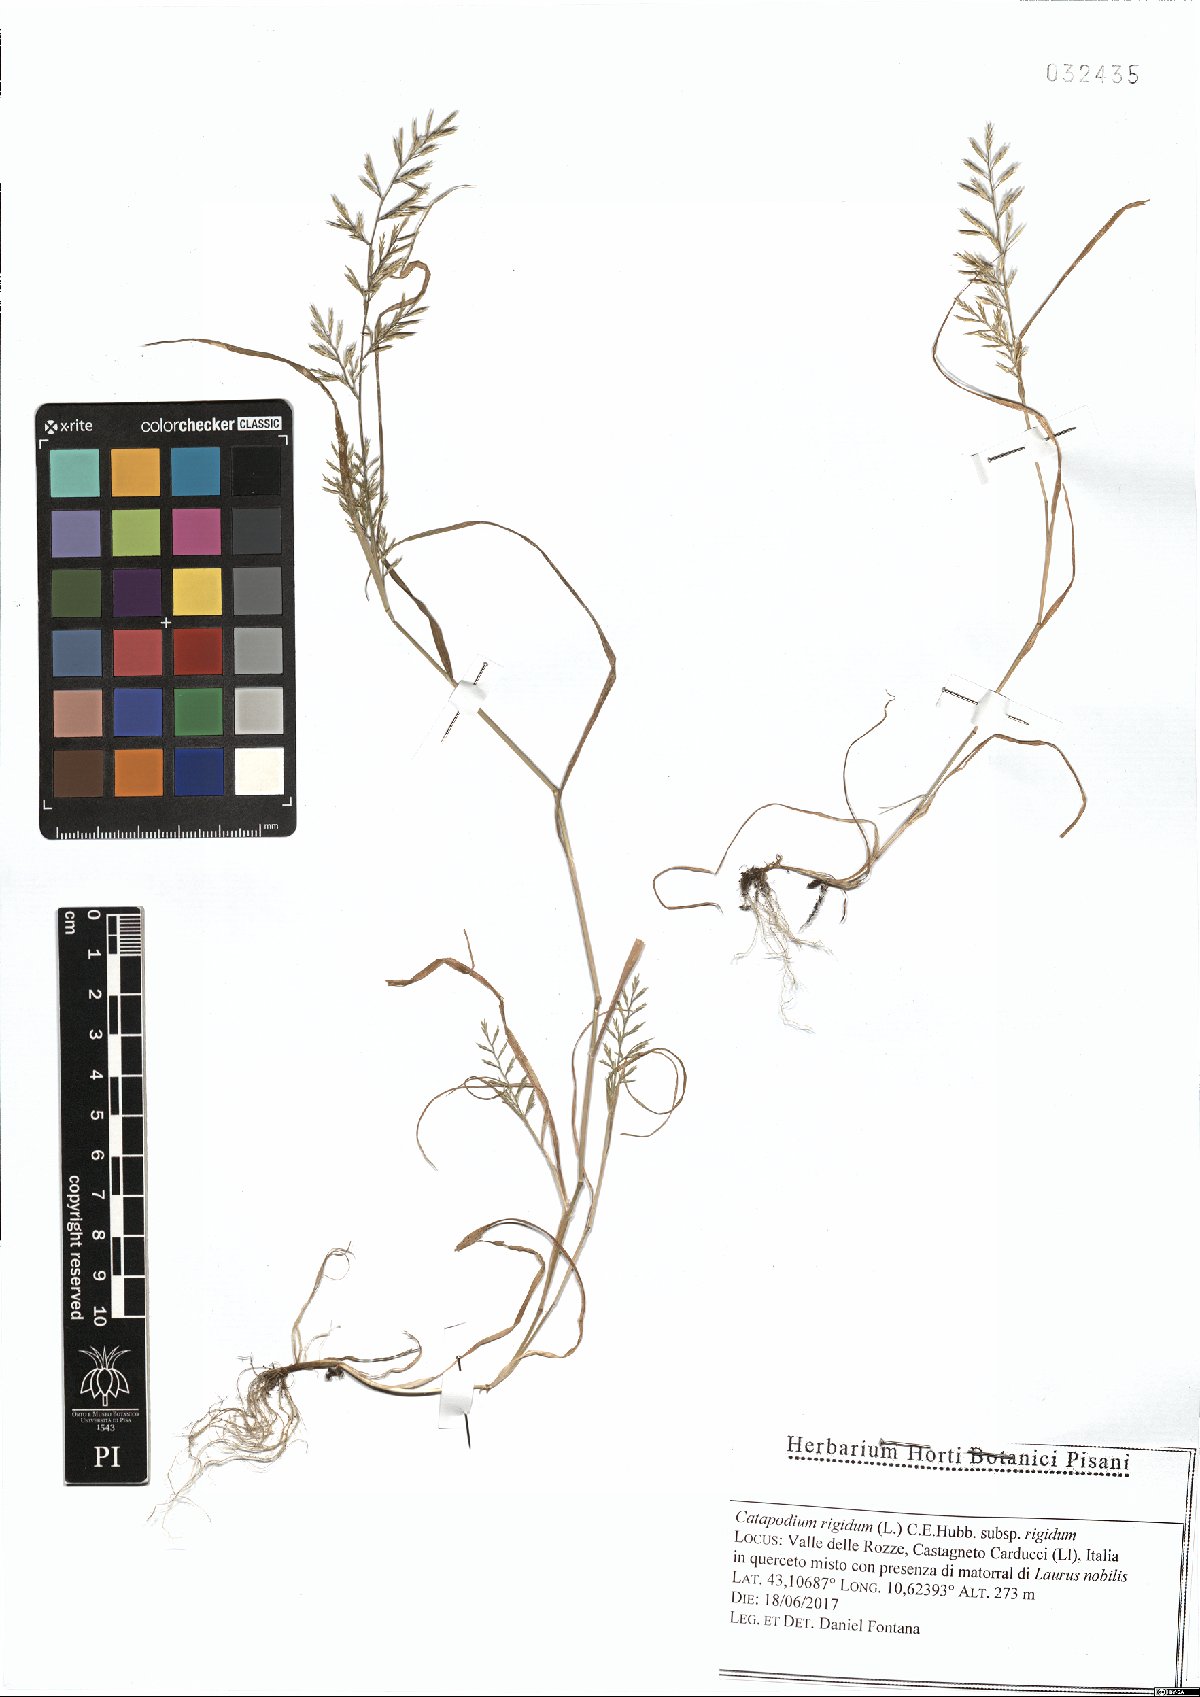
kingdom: Plantae
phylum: Tracheophyta
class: Liliopsida
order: Poales
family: Poaceae
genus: Catapodium
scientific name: Catapodium rigidum
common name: Fern-grass
